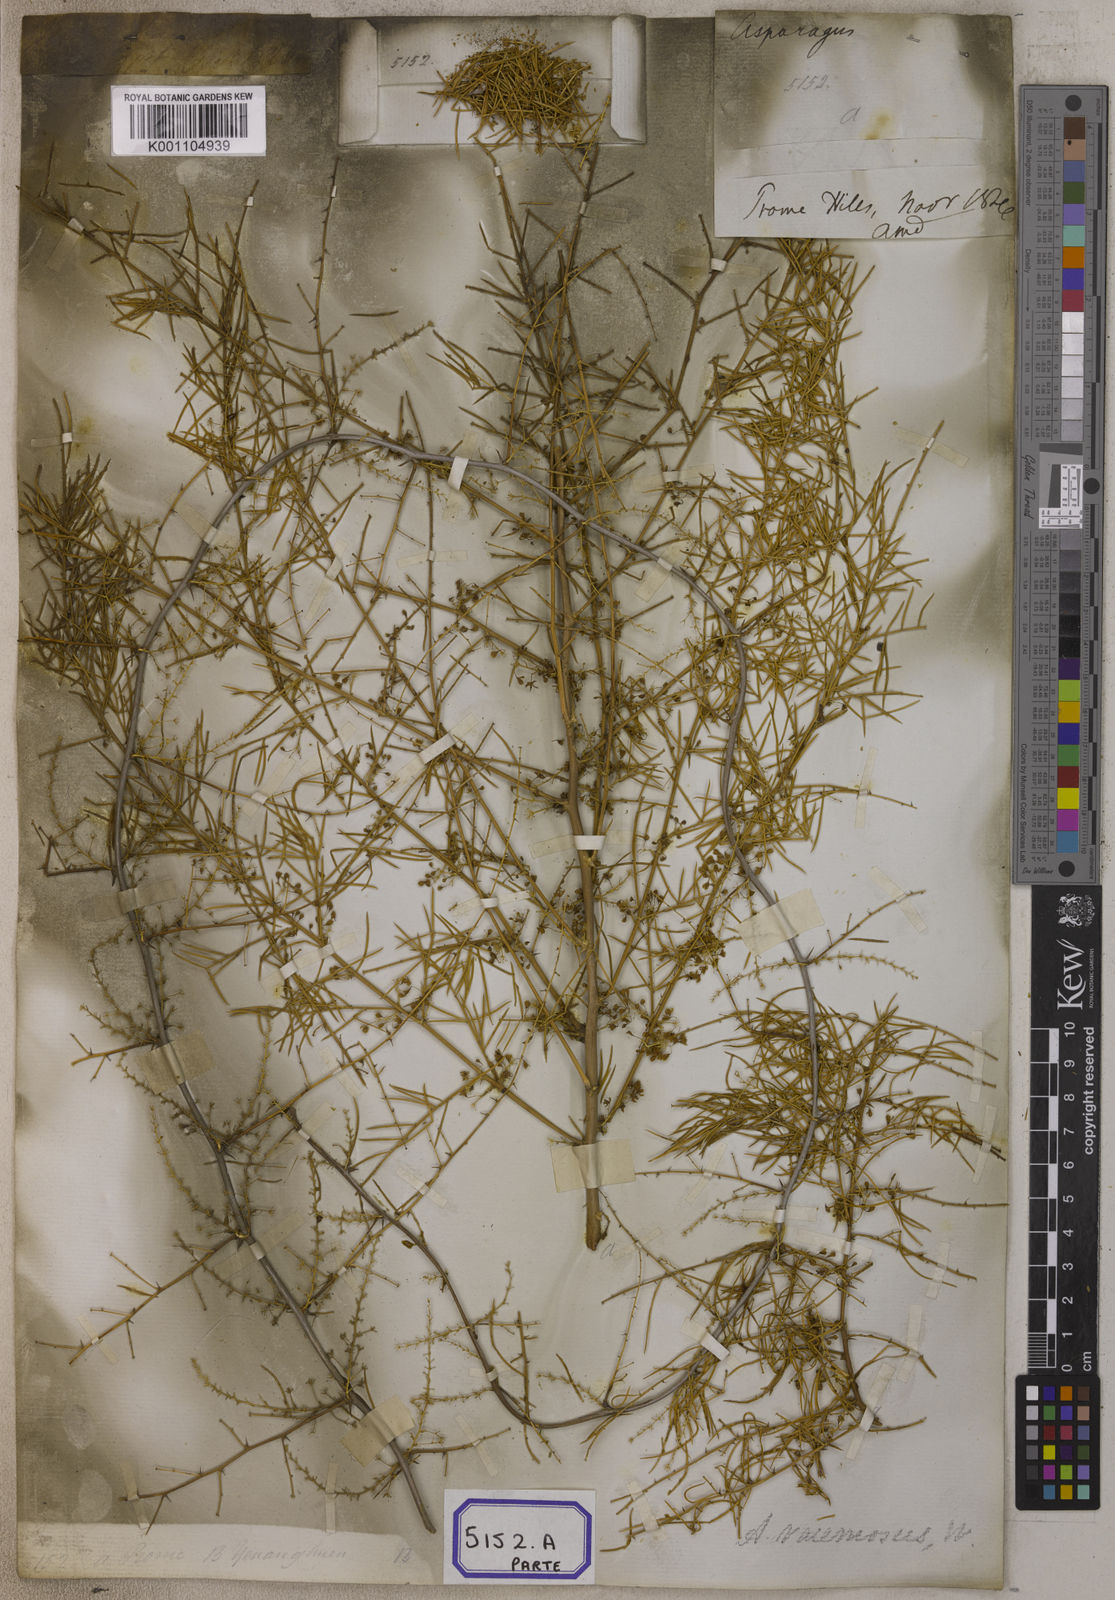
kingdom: Plantae
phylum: Tracheophyta
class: Liliopsida
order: Asparagales
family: Asparagaceae
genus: Asparagus
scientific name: Asparagus racemosus
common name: Asparagus-fern
